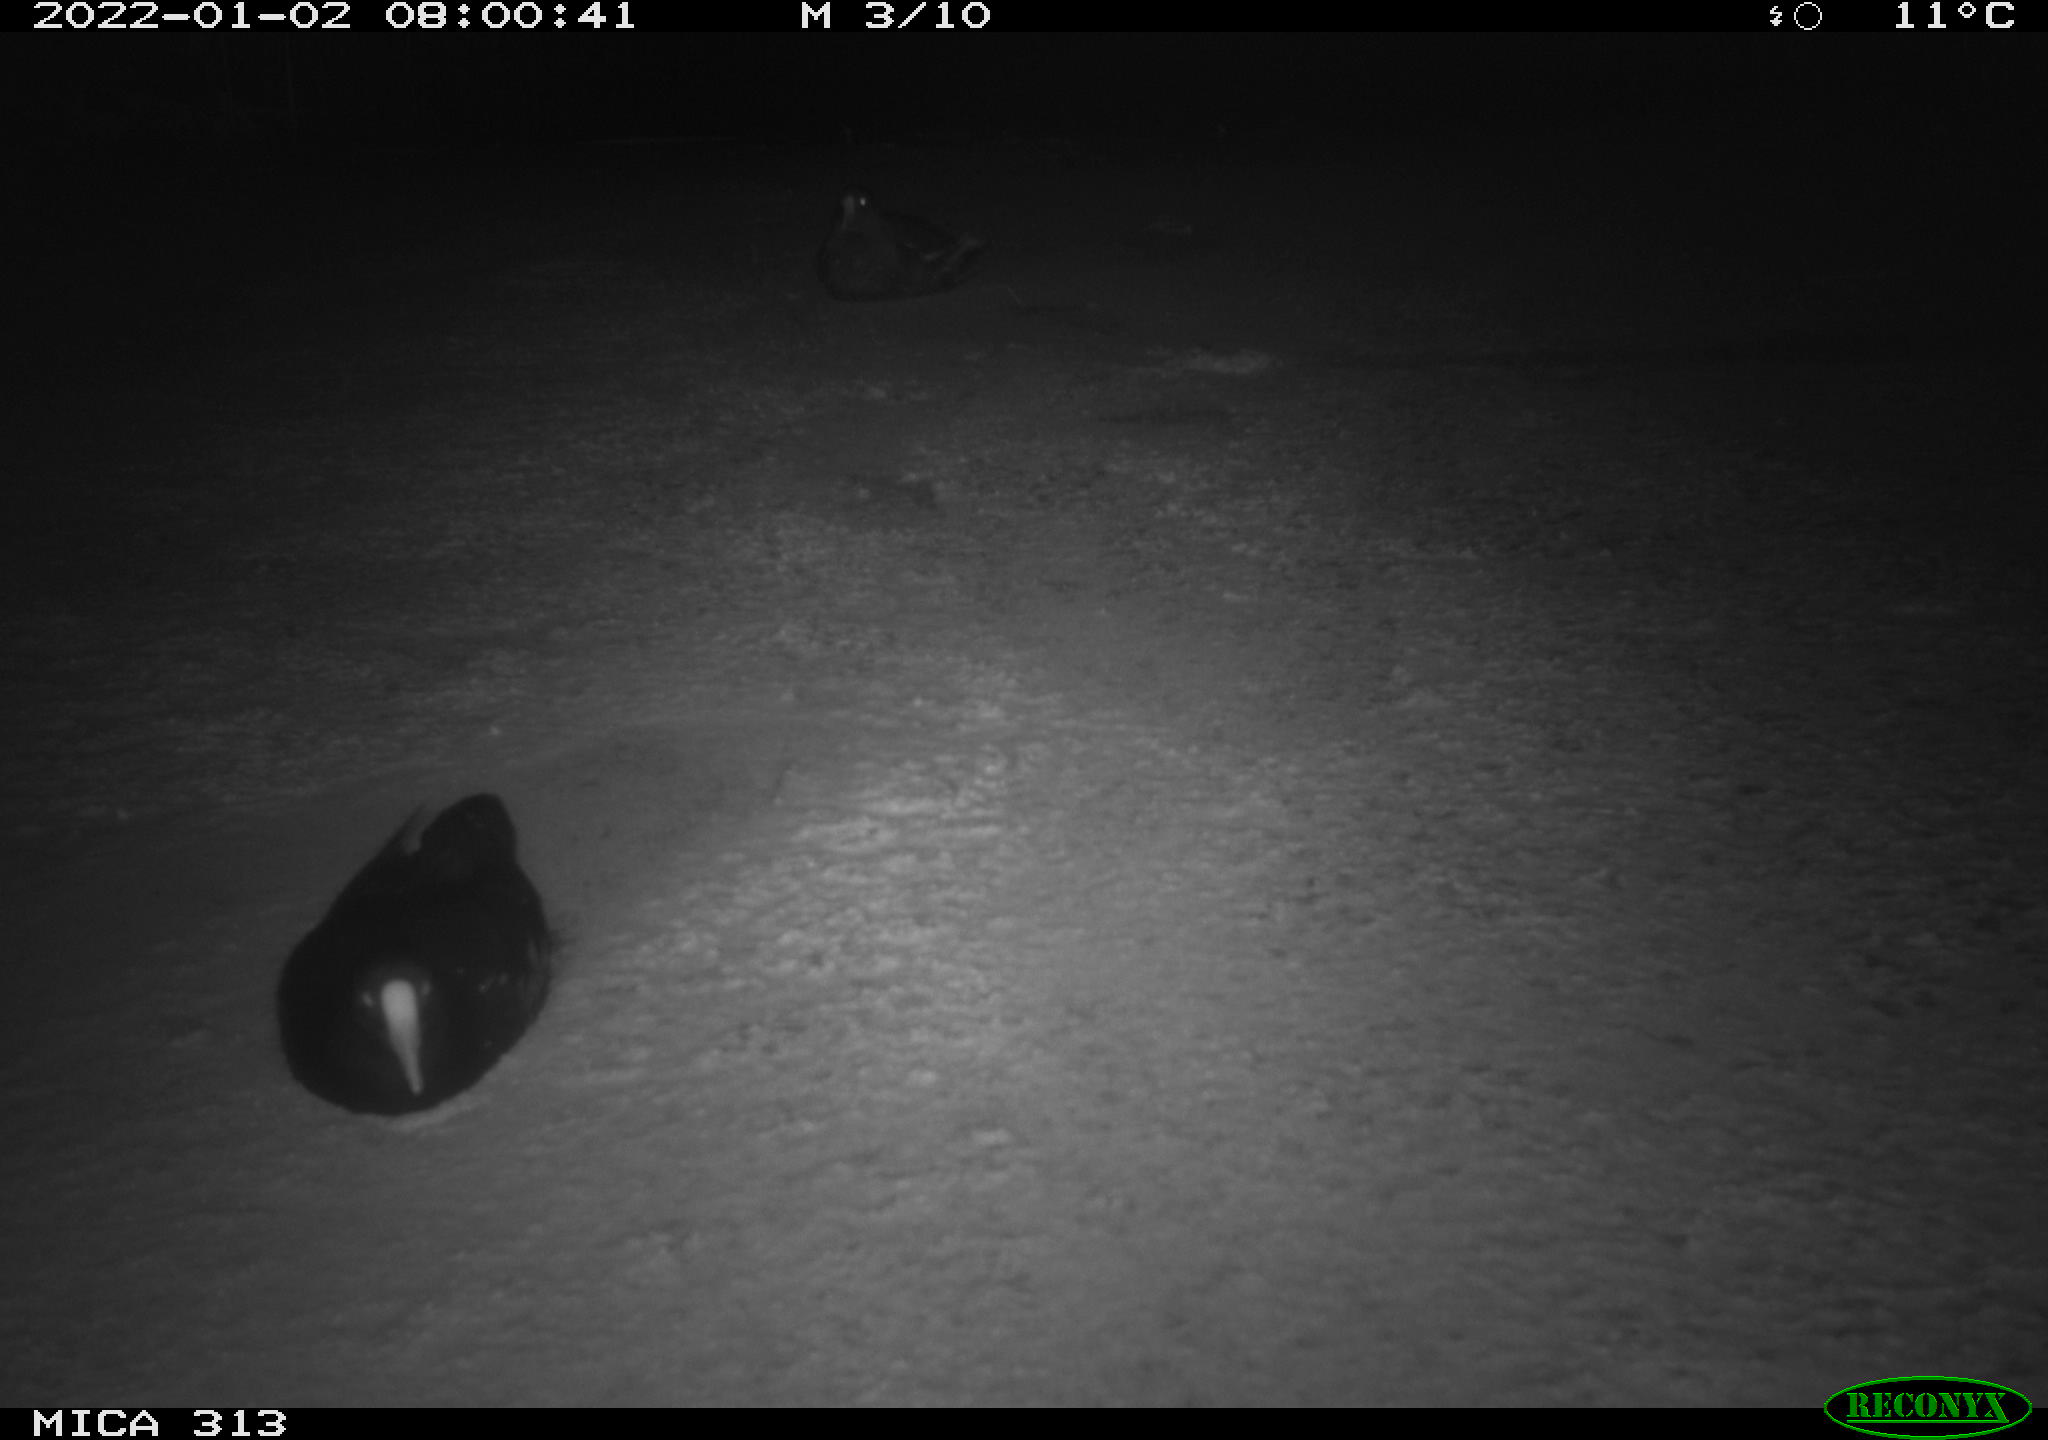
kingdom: Animalia
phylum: Chordata
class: Aves
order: Gruiformes
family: Rallidae
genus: Gallinula
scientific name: Gallinula chloropus
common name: Common moorhen
